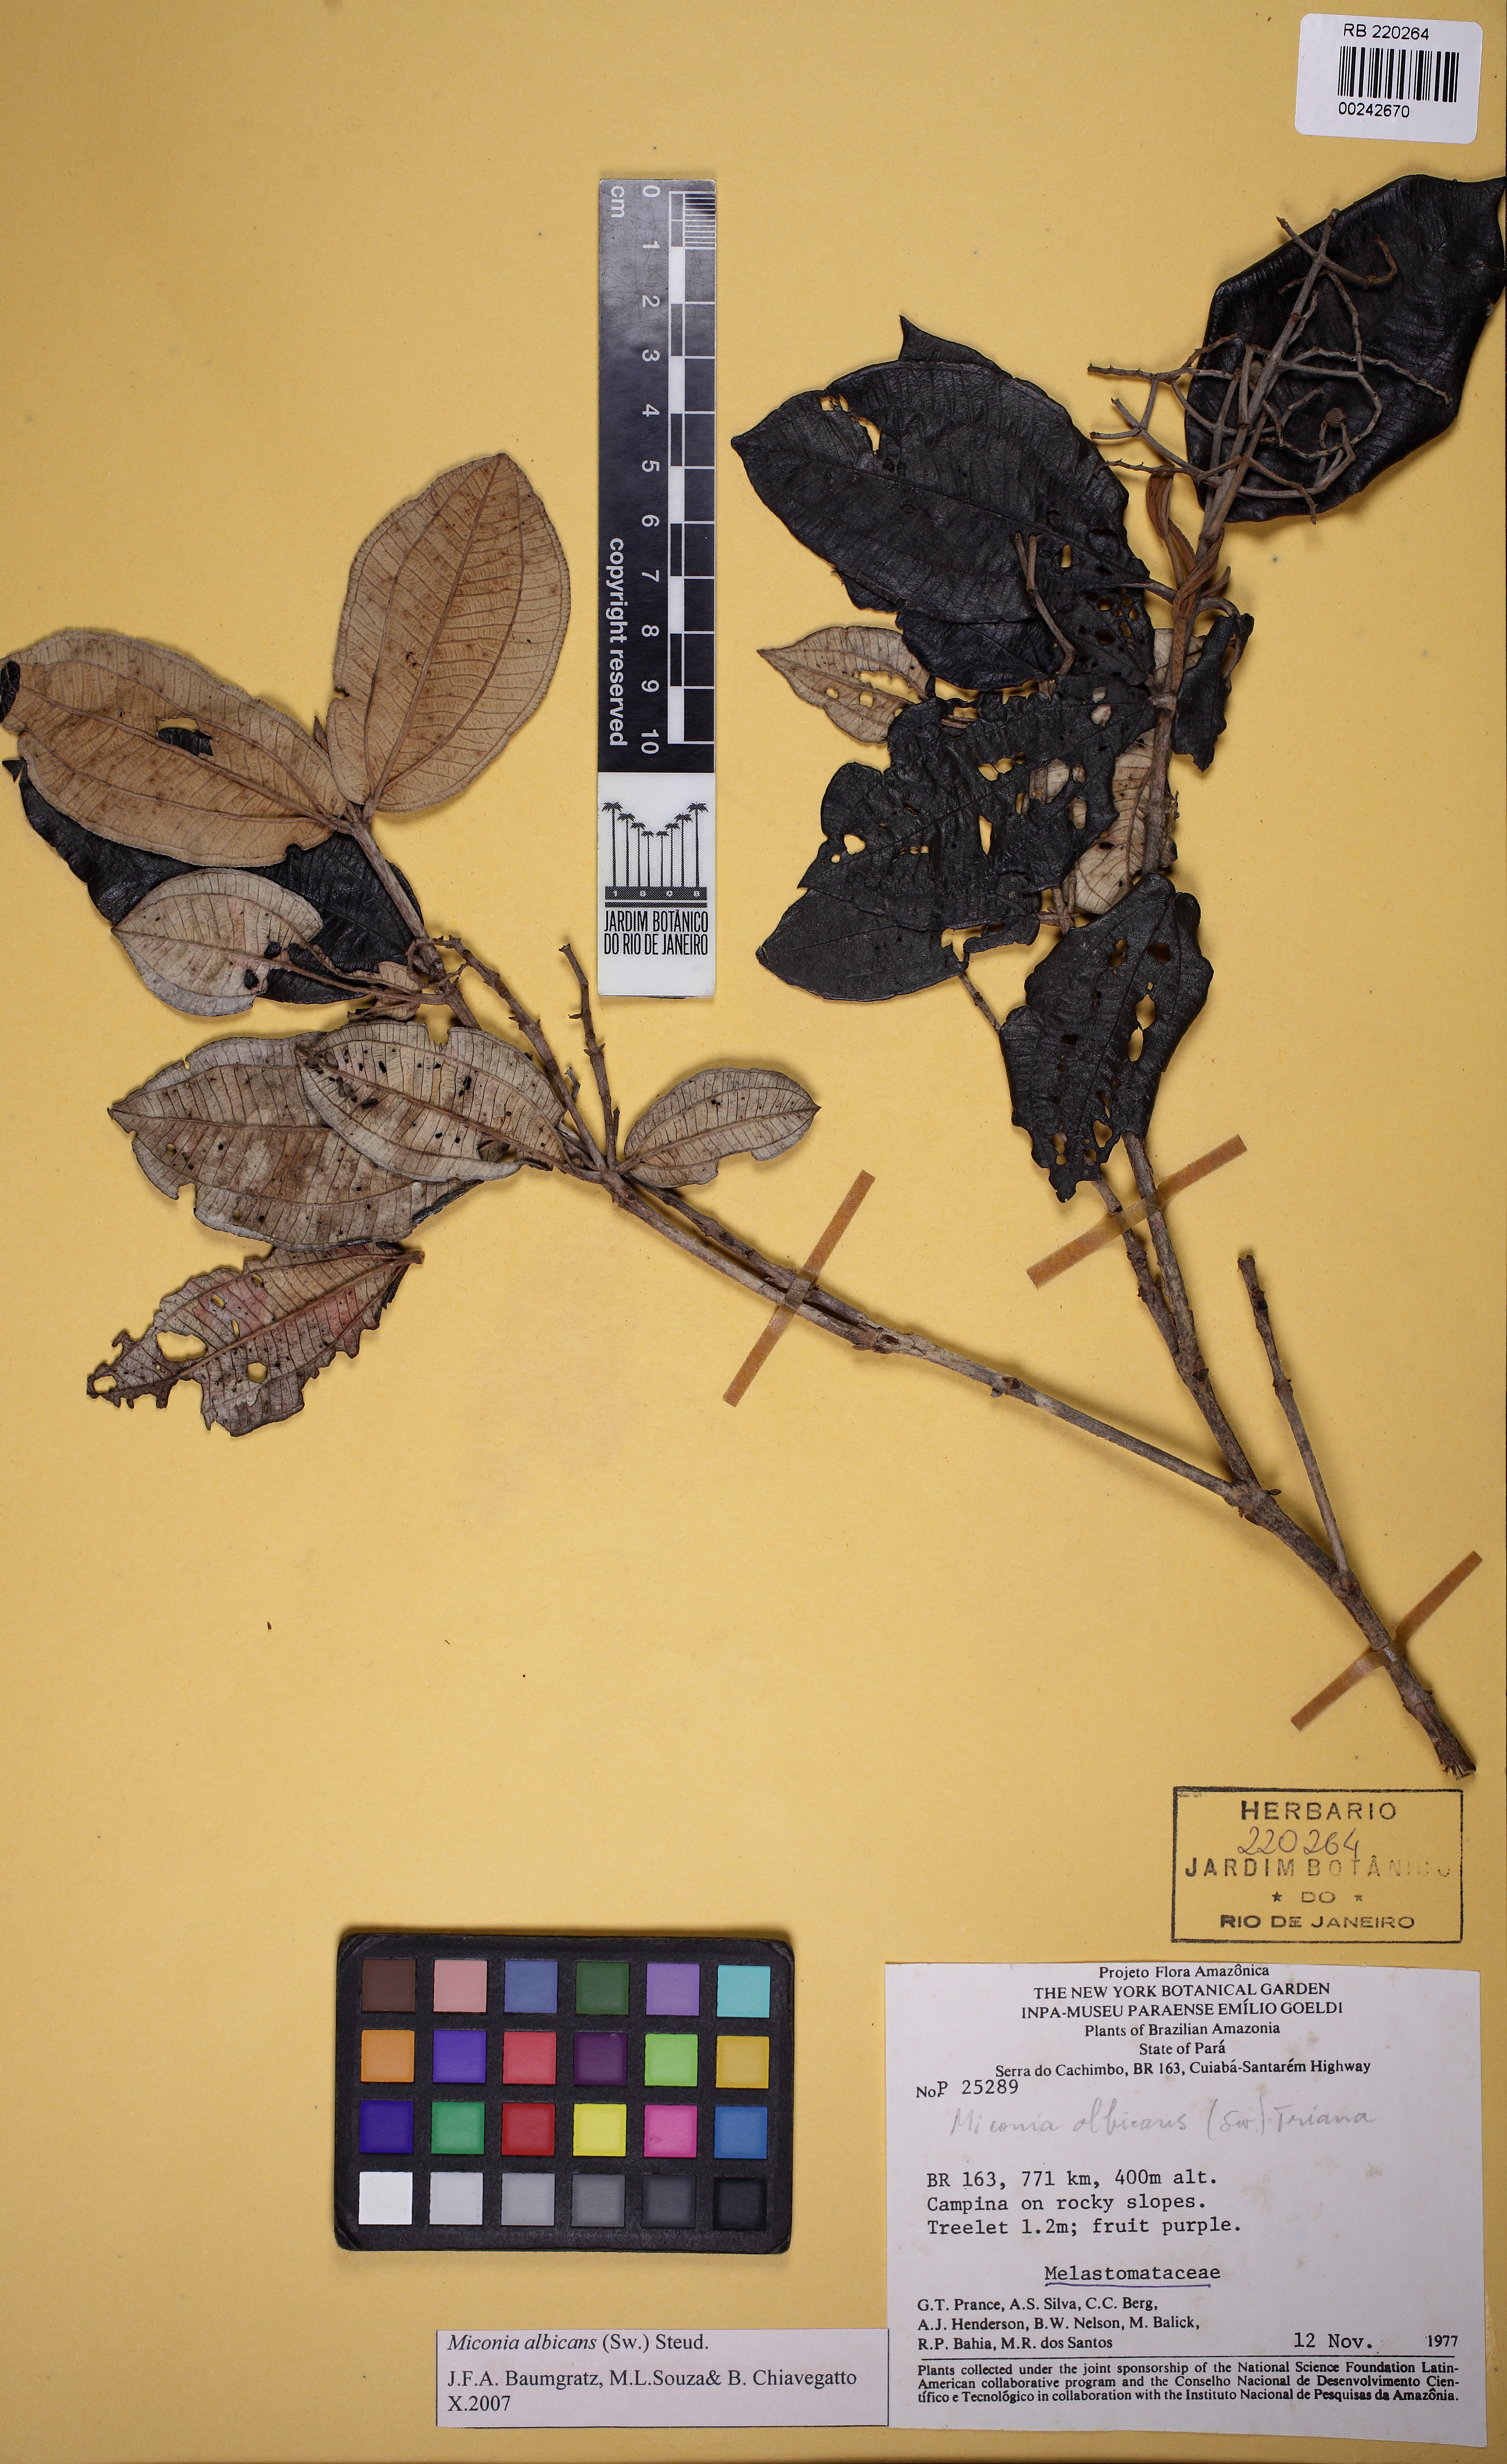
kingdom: Plantae
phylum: Tracheophyta
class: Magnoliopsida
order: Myrtales
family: Melastomataceae
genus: Miconia
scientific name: Miconia albicans
